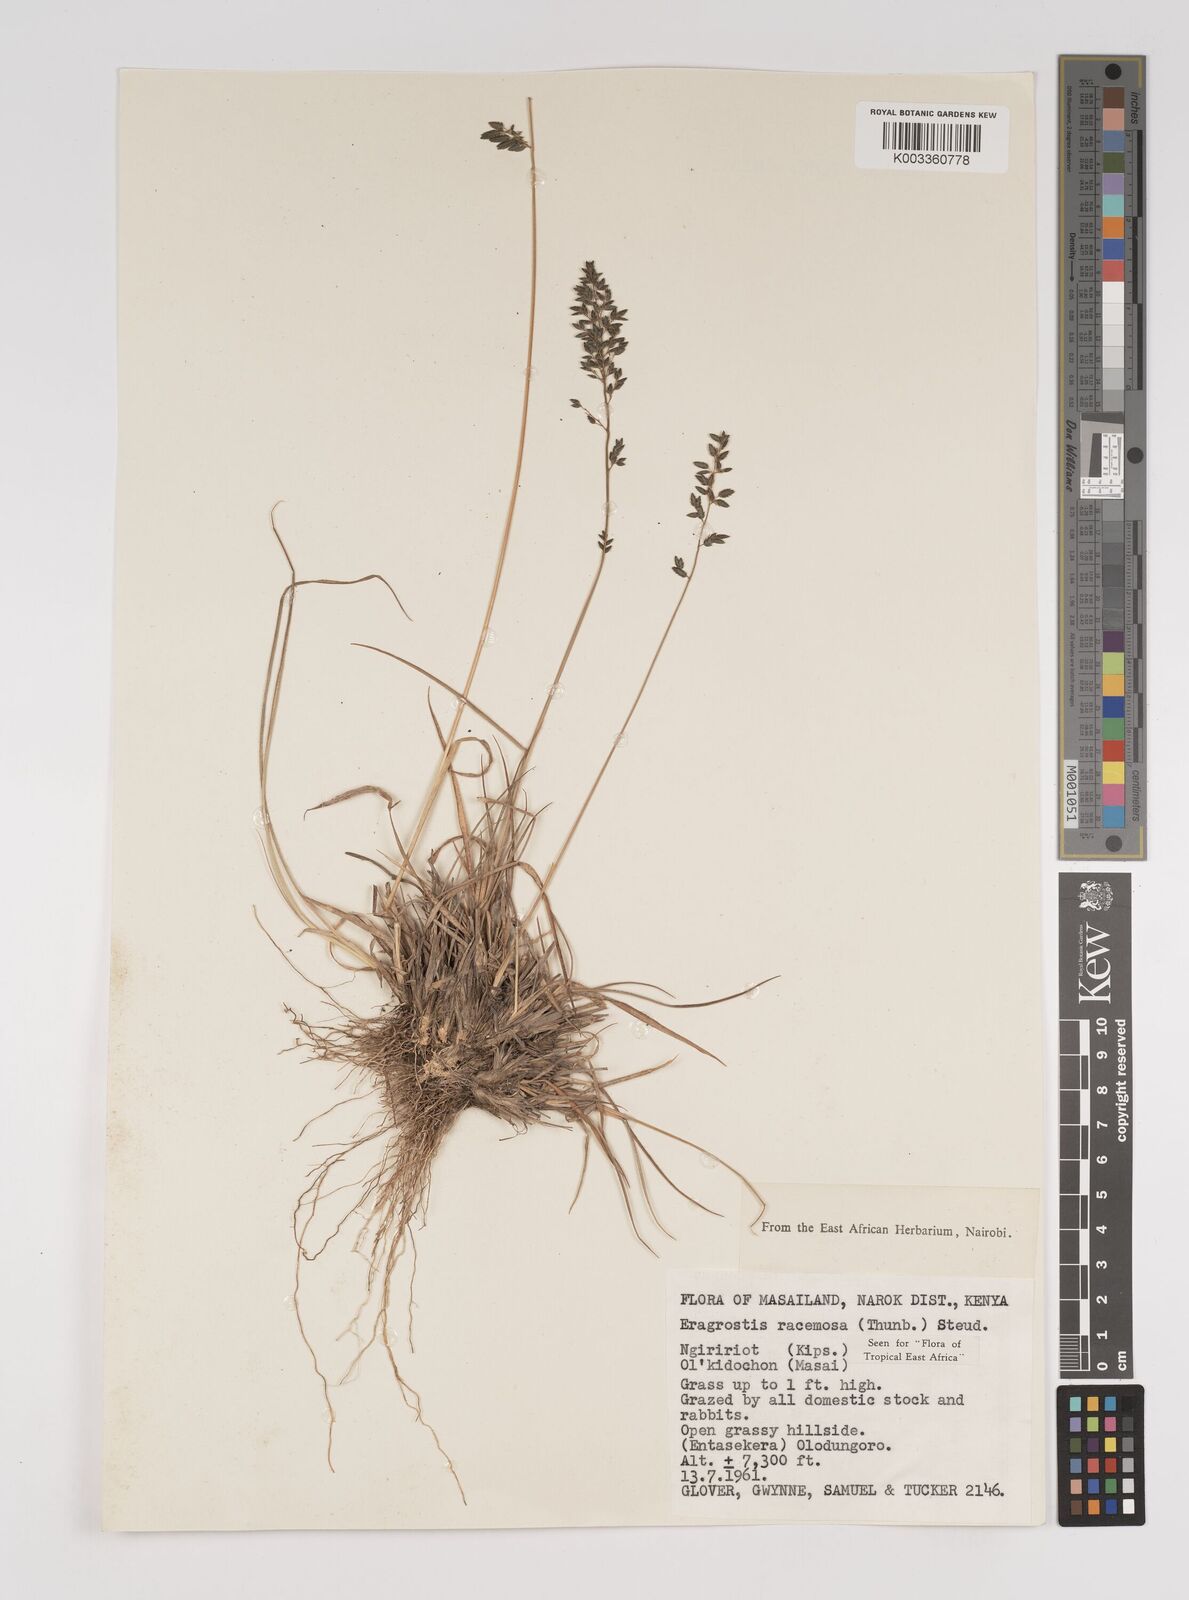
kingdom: Plantae
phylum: Tracheophyta
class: Liliopsida
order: Poales
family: Poaceae
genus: Eragrostis
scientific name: Eragrostis racemosa
